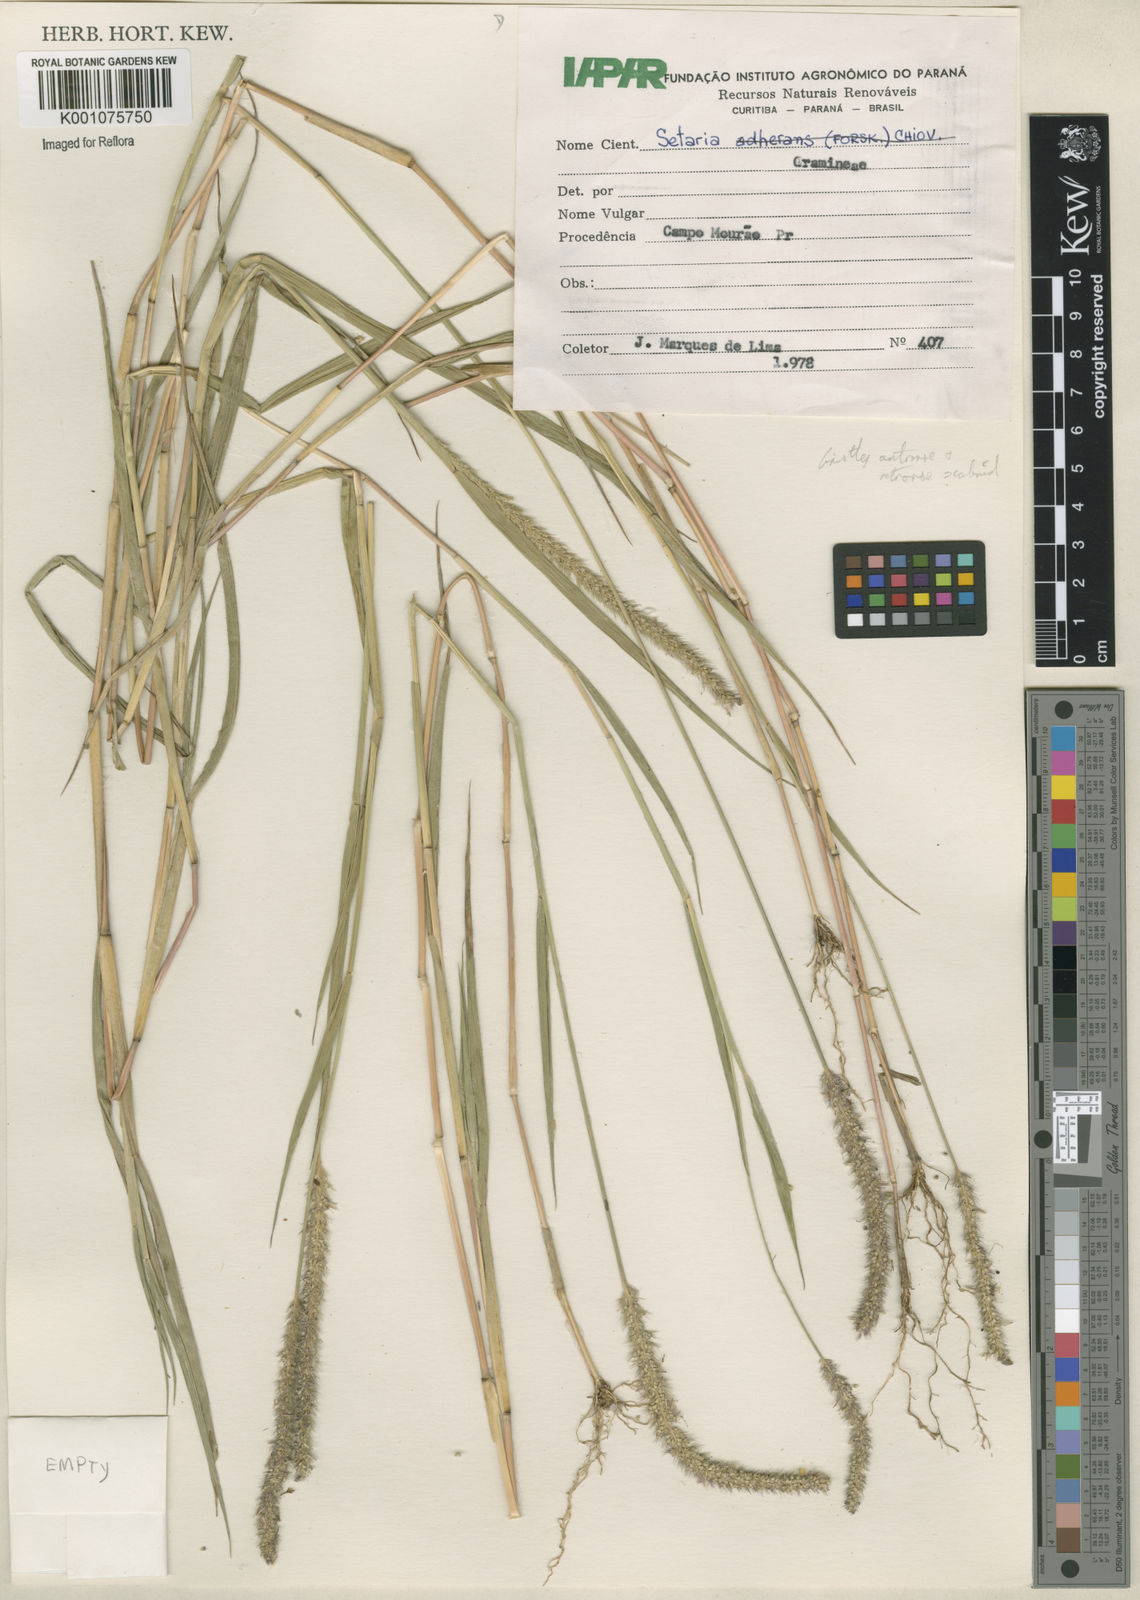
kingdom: Plantae
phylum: Tracheophyta
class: Liliopsida
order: Poales
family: Poaceae
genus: Setaria
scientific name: Setaria scandens
